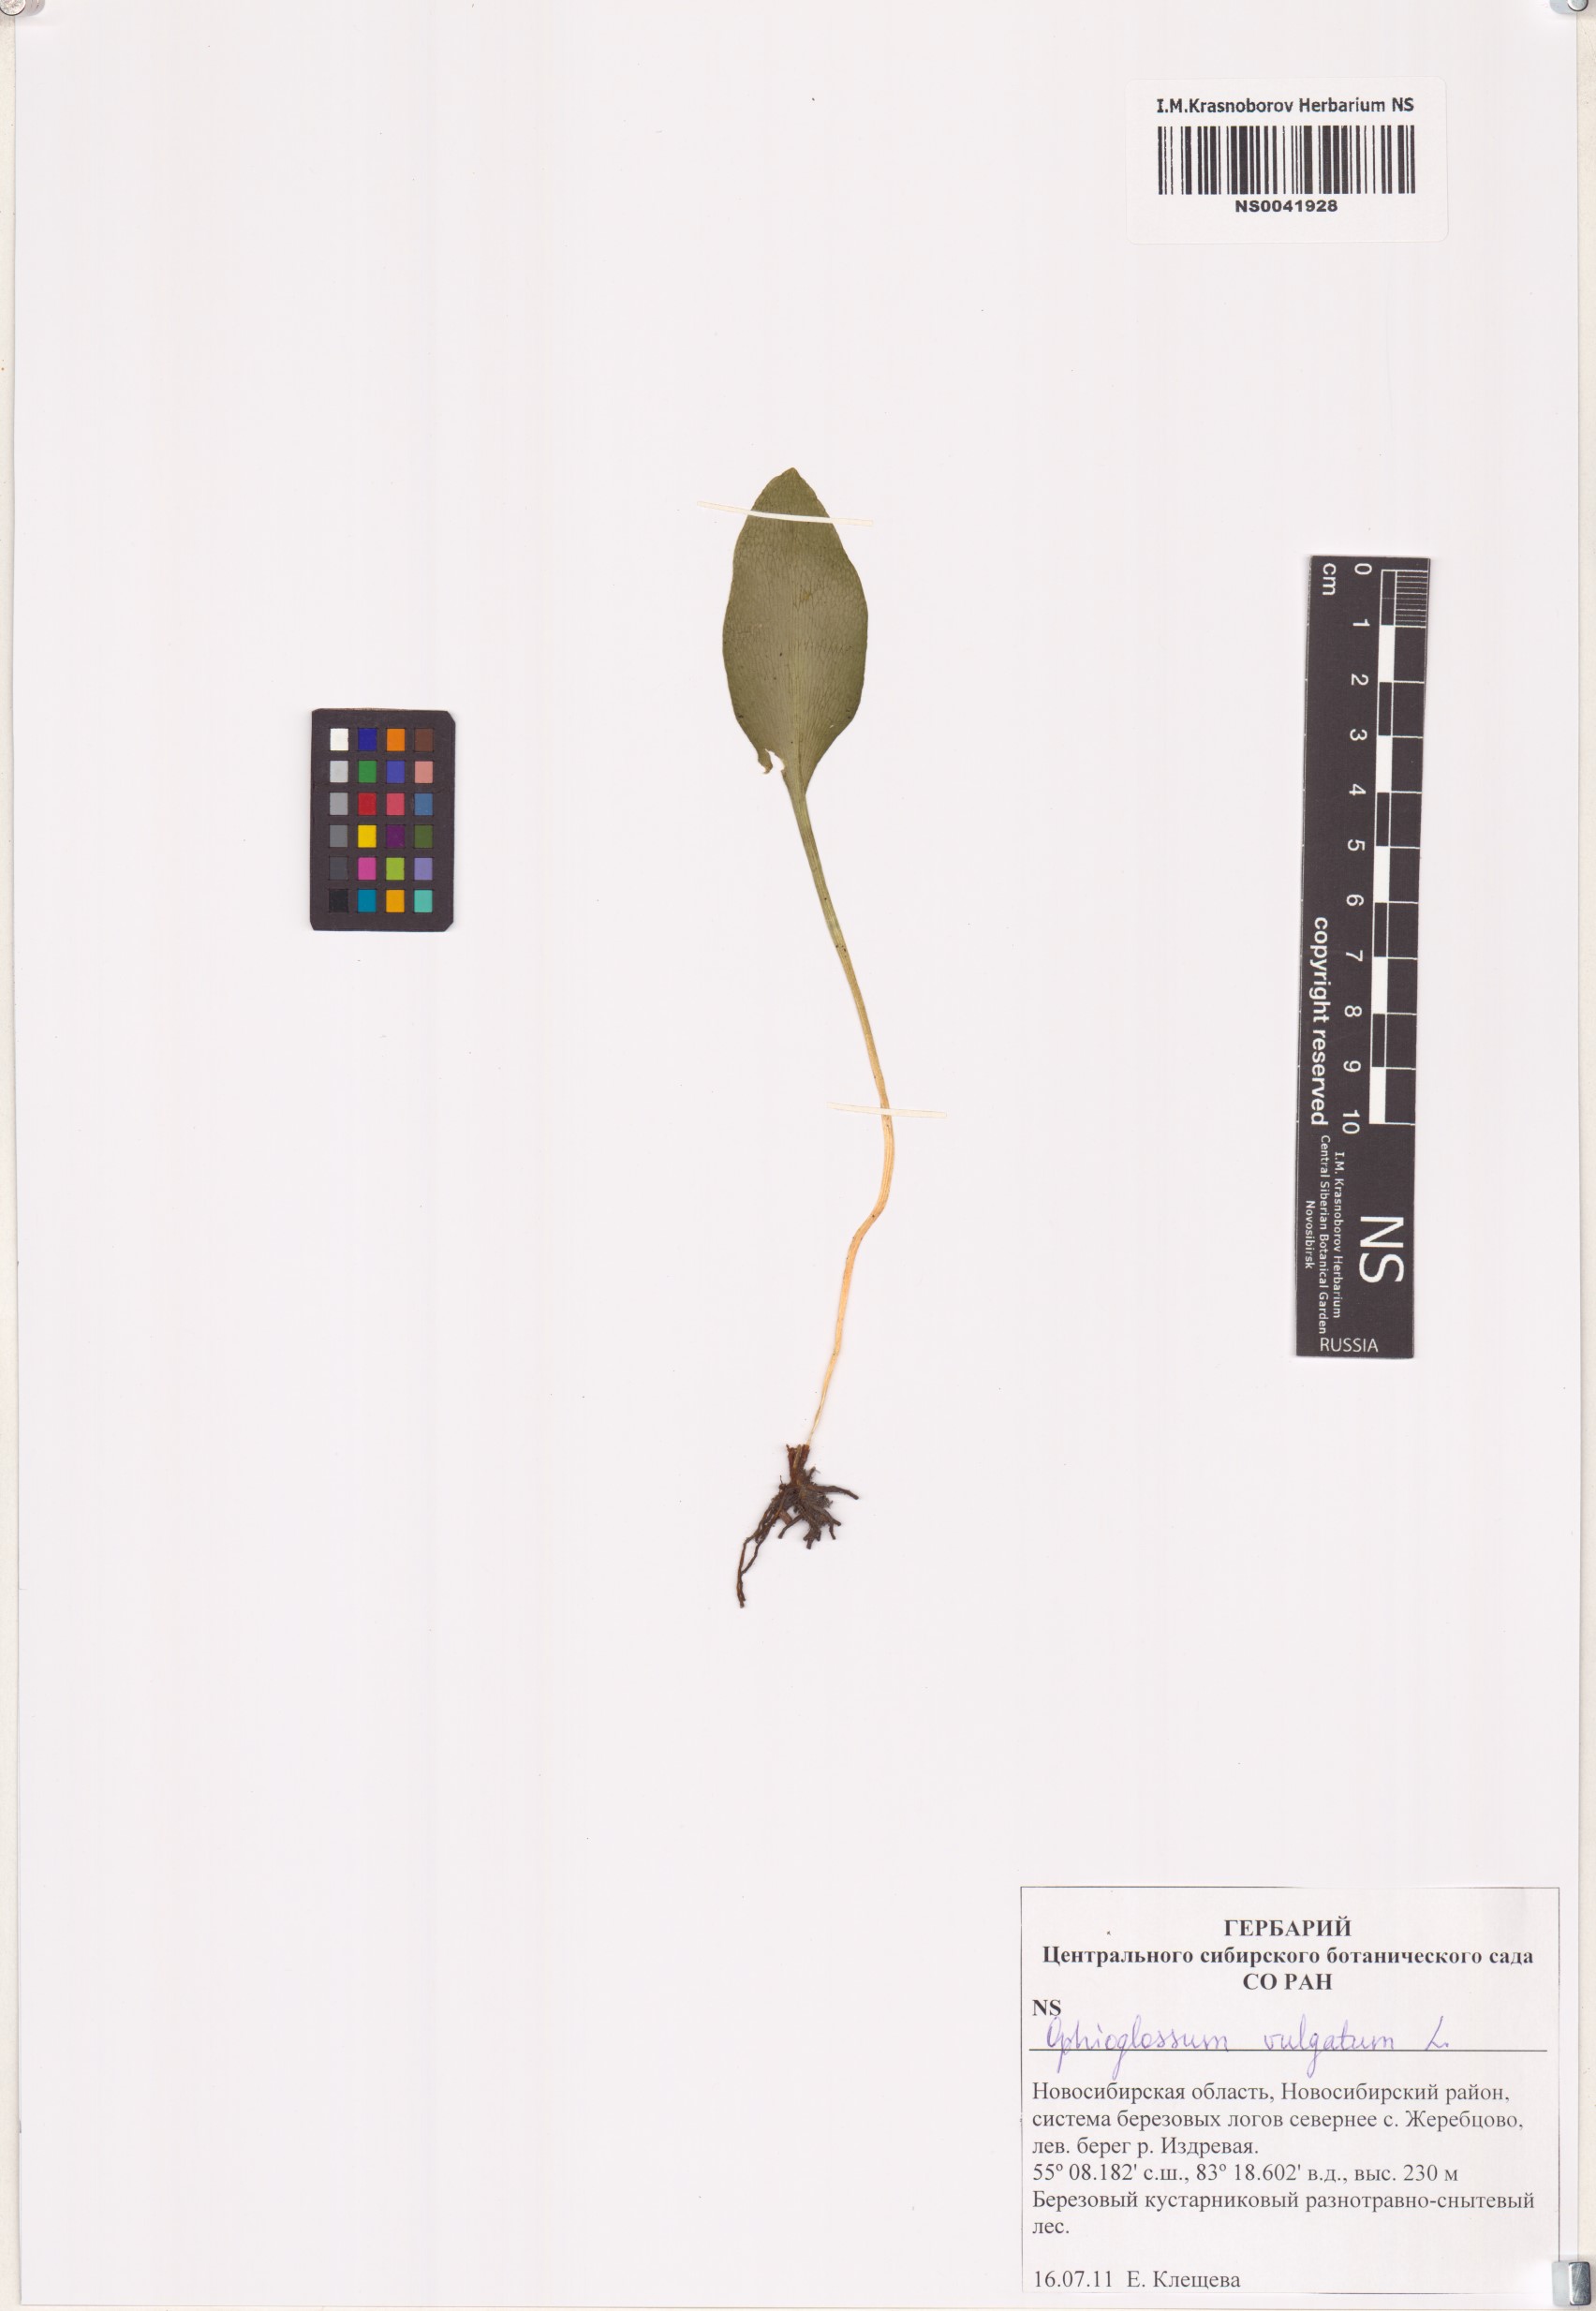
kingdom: Plantae
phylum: Tracheophyta
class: Polypodiopsida
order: Ophioglossales
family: Ophioglossaceae
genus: Ophioglossum
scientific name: Ophioglossum vulgatum
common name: Adder's-tongue
